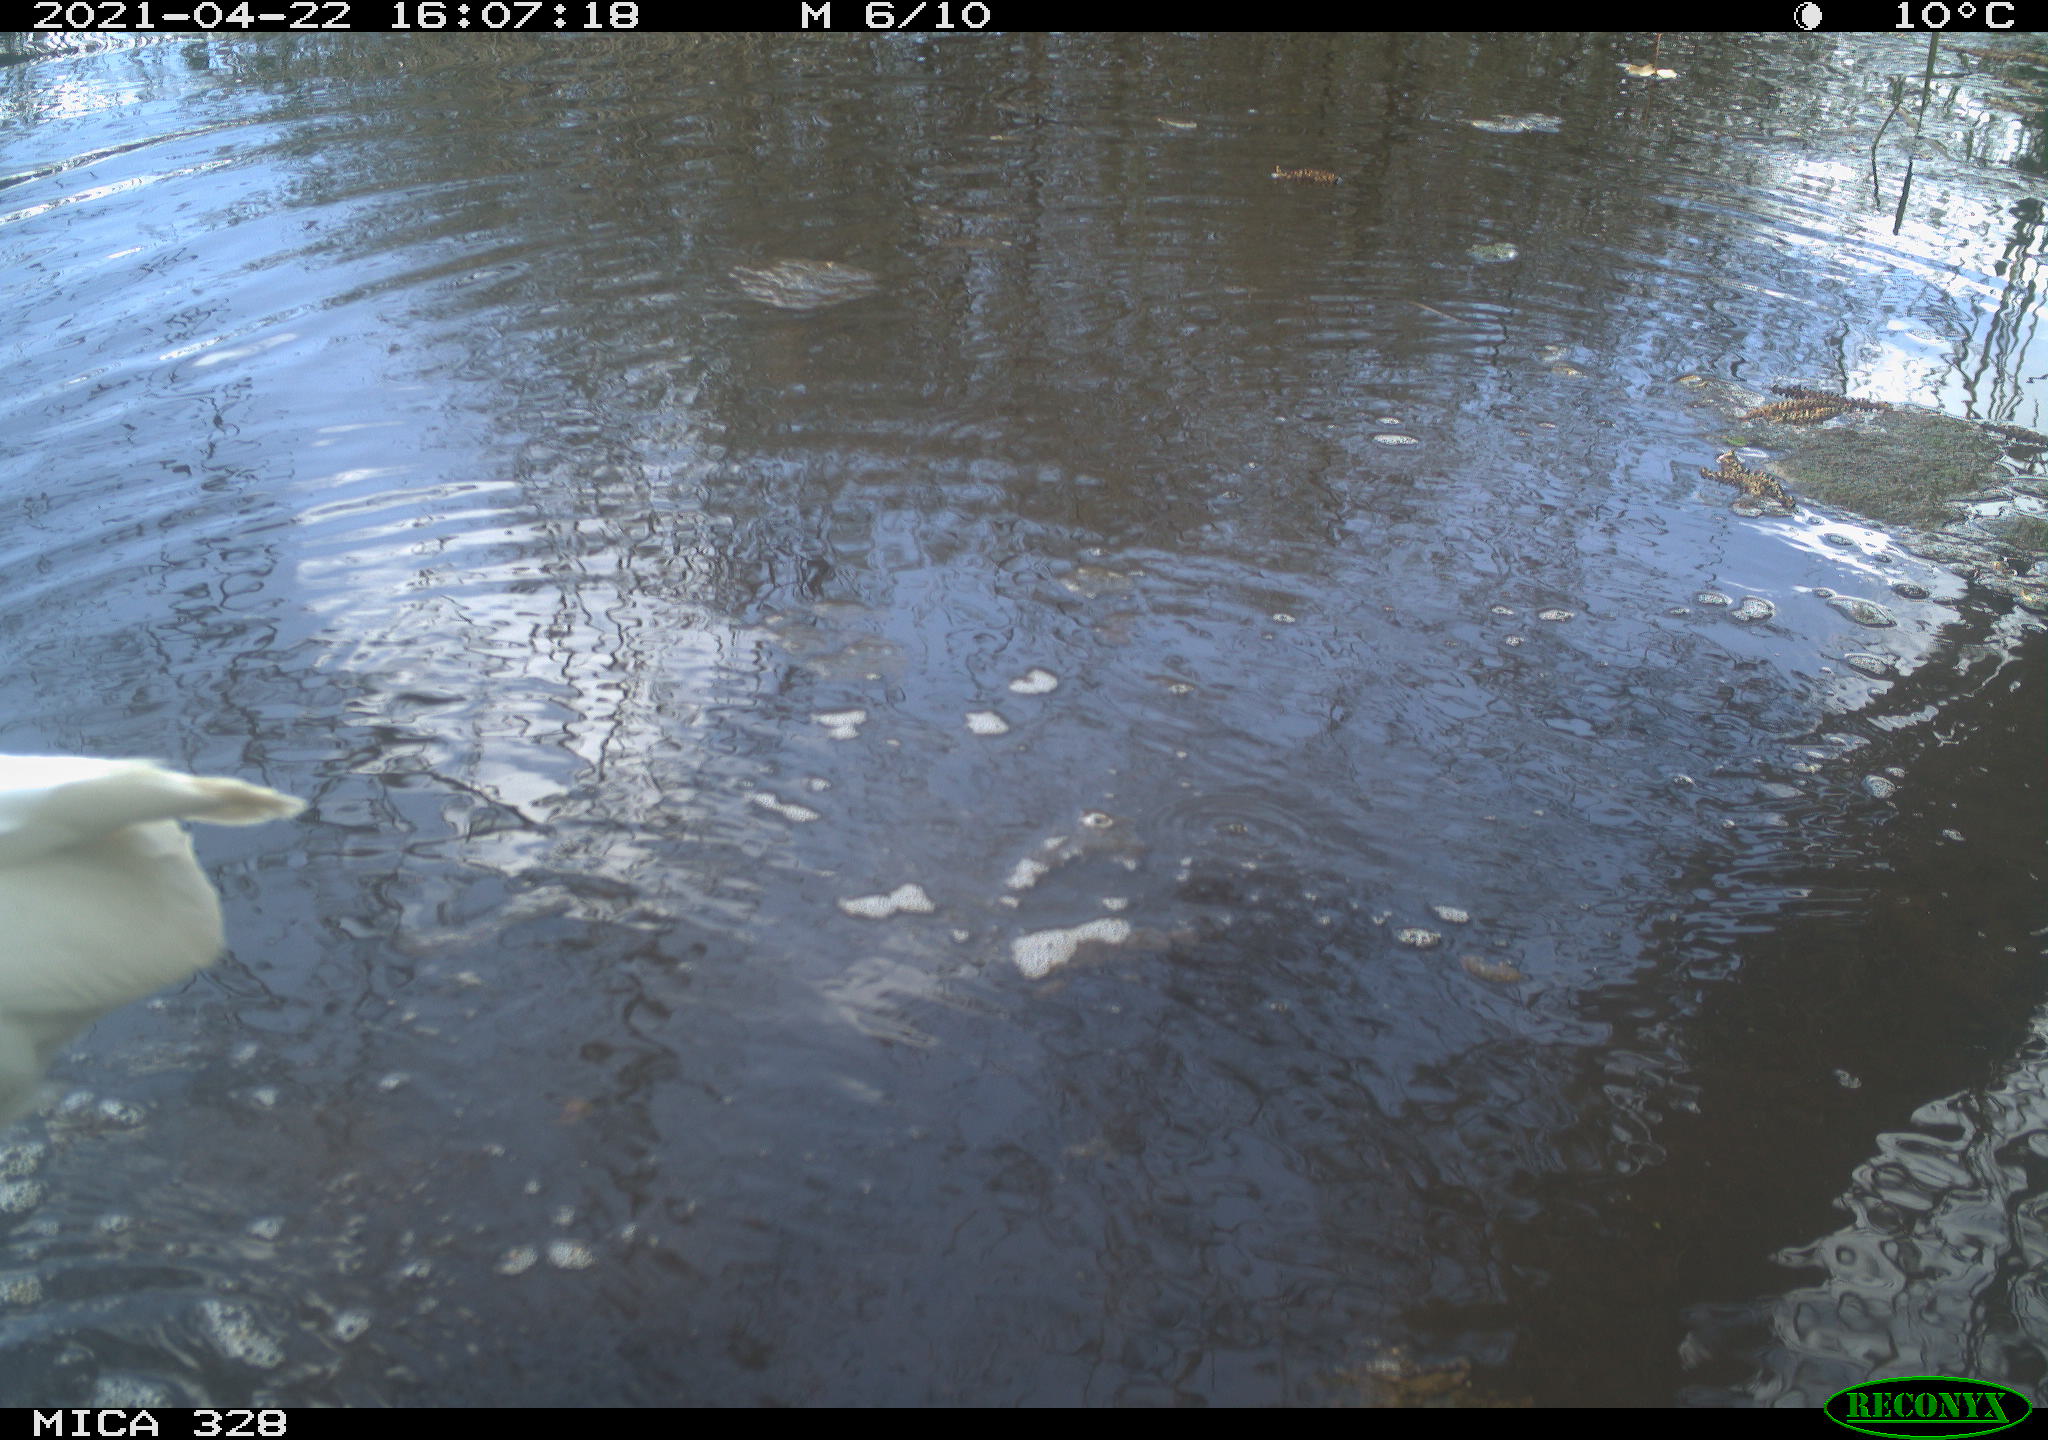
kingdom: Animalia
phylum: Chordata
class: Aves
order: Pelecaniformes
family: Ardeidae
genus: Ardea
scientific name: Ardea alba
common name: Great egret
